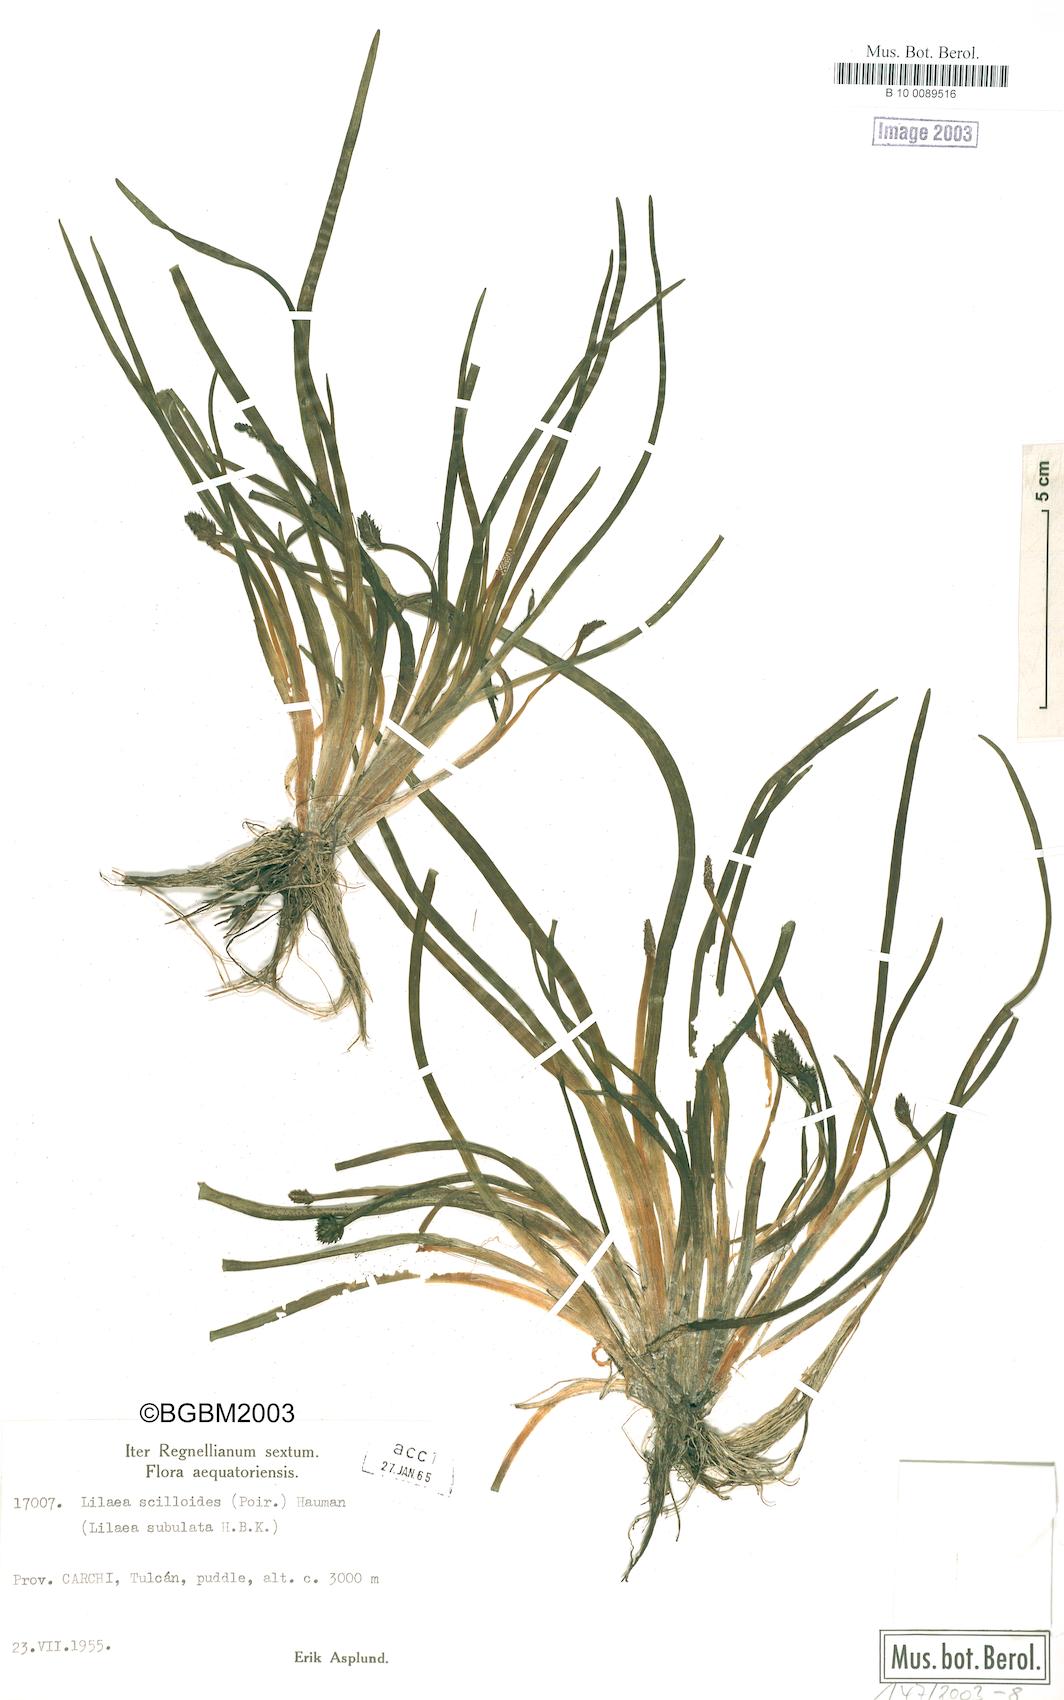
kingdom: Plantae
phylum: Tracheophyta
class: Liliopsida
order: Alismatales
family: Juncaginaceae
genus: Triglochin
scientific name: Triglochin scilloides
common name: Awl-leaved lilaea
